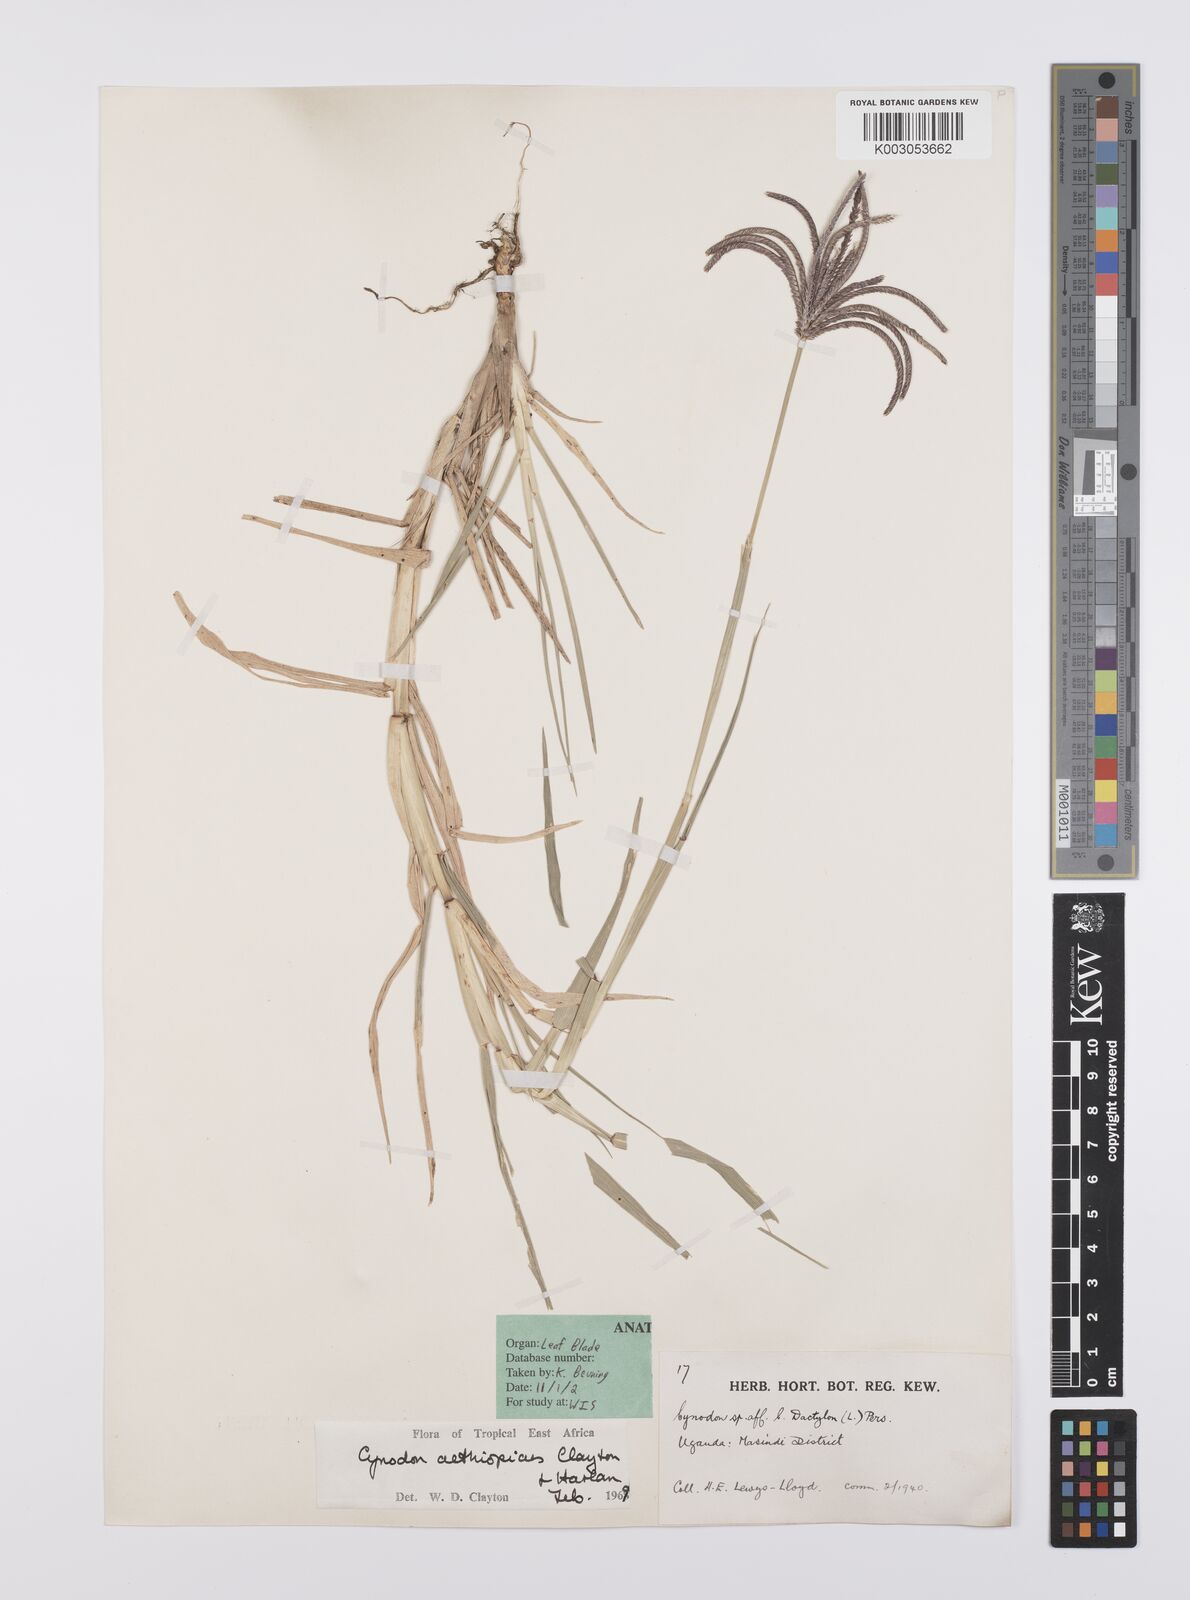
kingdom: Plantae
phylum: Tracheophyta
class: Liliopsida
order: Poales
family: Poaceae
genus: Cynodon
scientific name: Cynodon aethiopicus
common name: Ethiopian dogstooth grass
